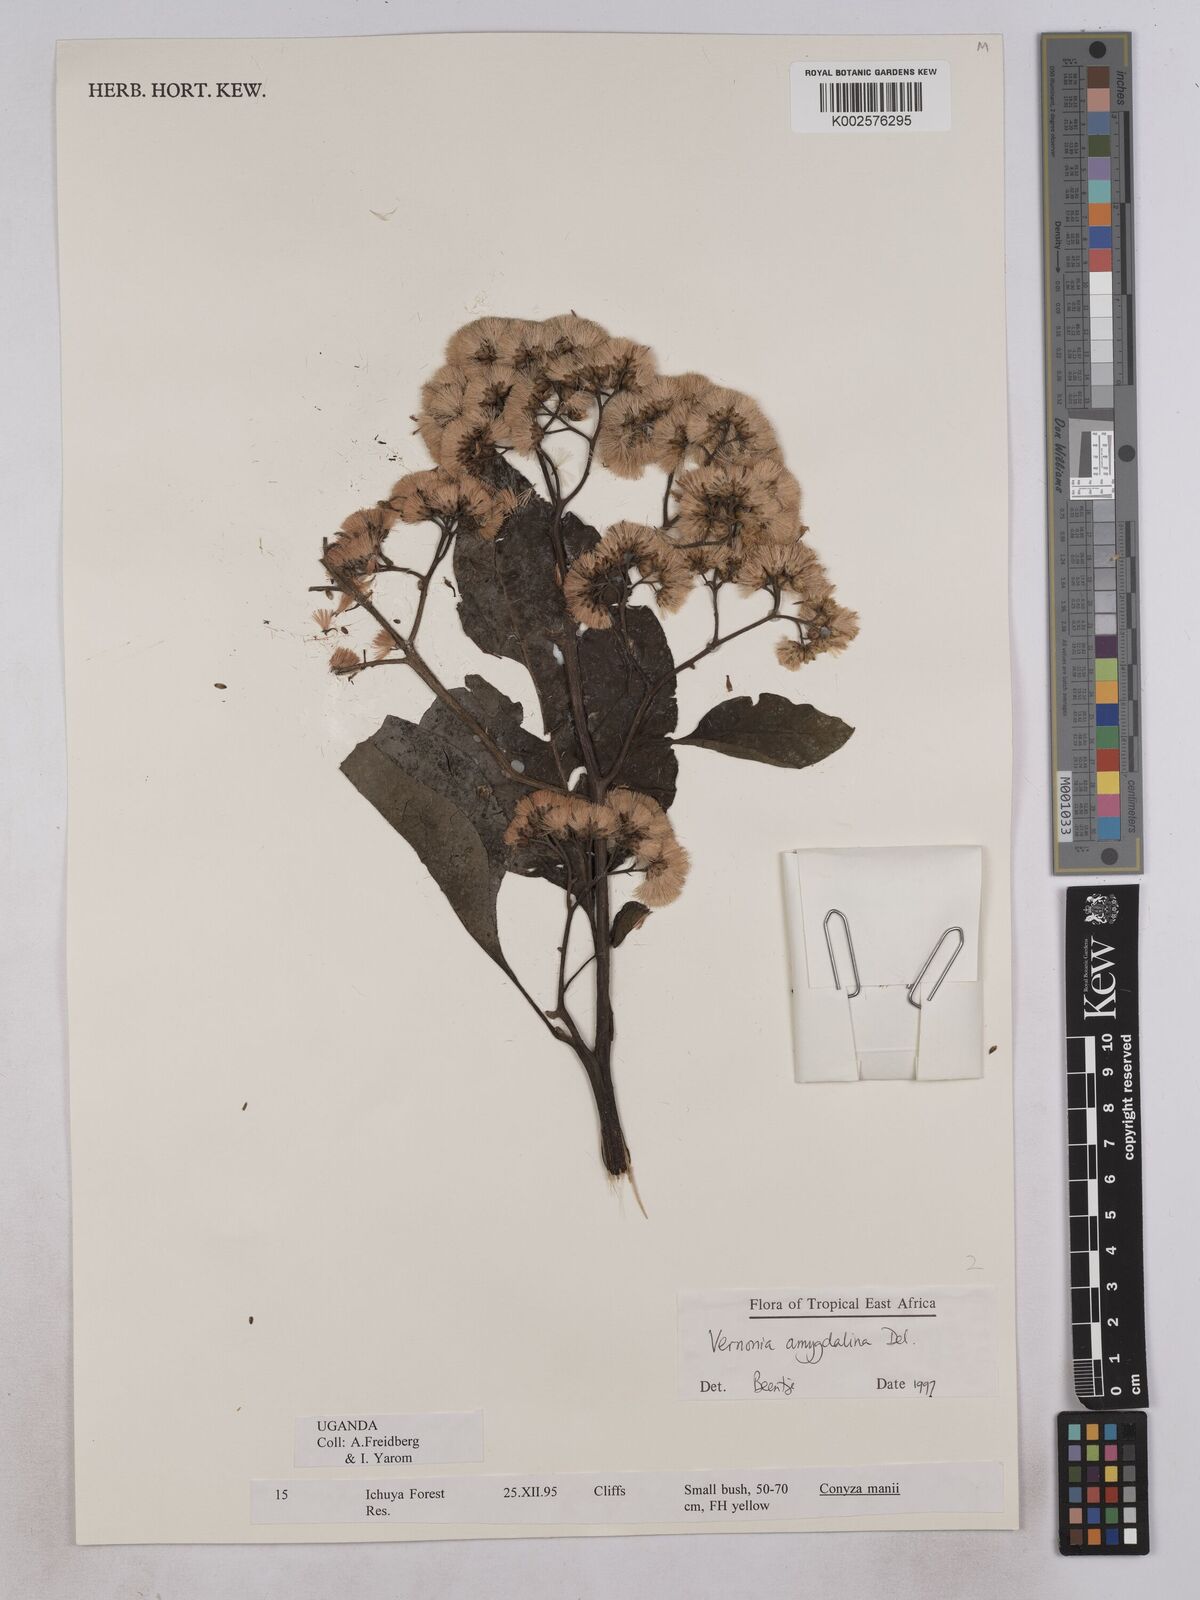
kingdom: Plantae
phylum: Tracheophyta
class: Magnoliopsida
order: Asterales
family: Asteraceae
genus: Gymnanthemum
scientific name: Gymnanthemum amygdalinum
